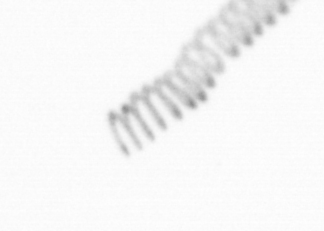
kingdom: Chromista
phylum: Ochrophyta
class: Bacillariophyceae
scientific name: Bacillariophyceae
